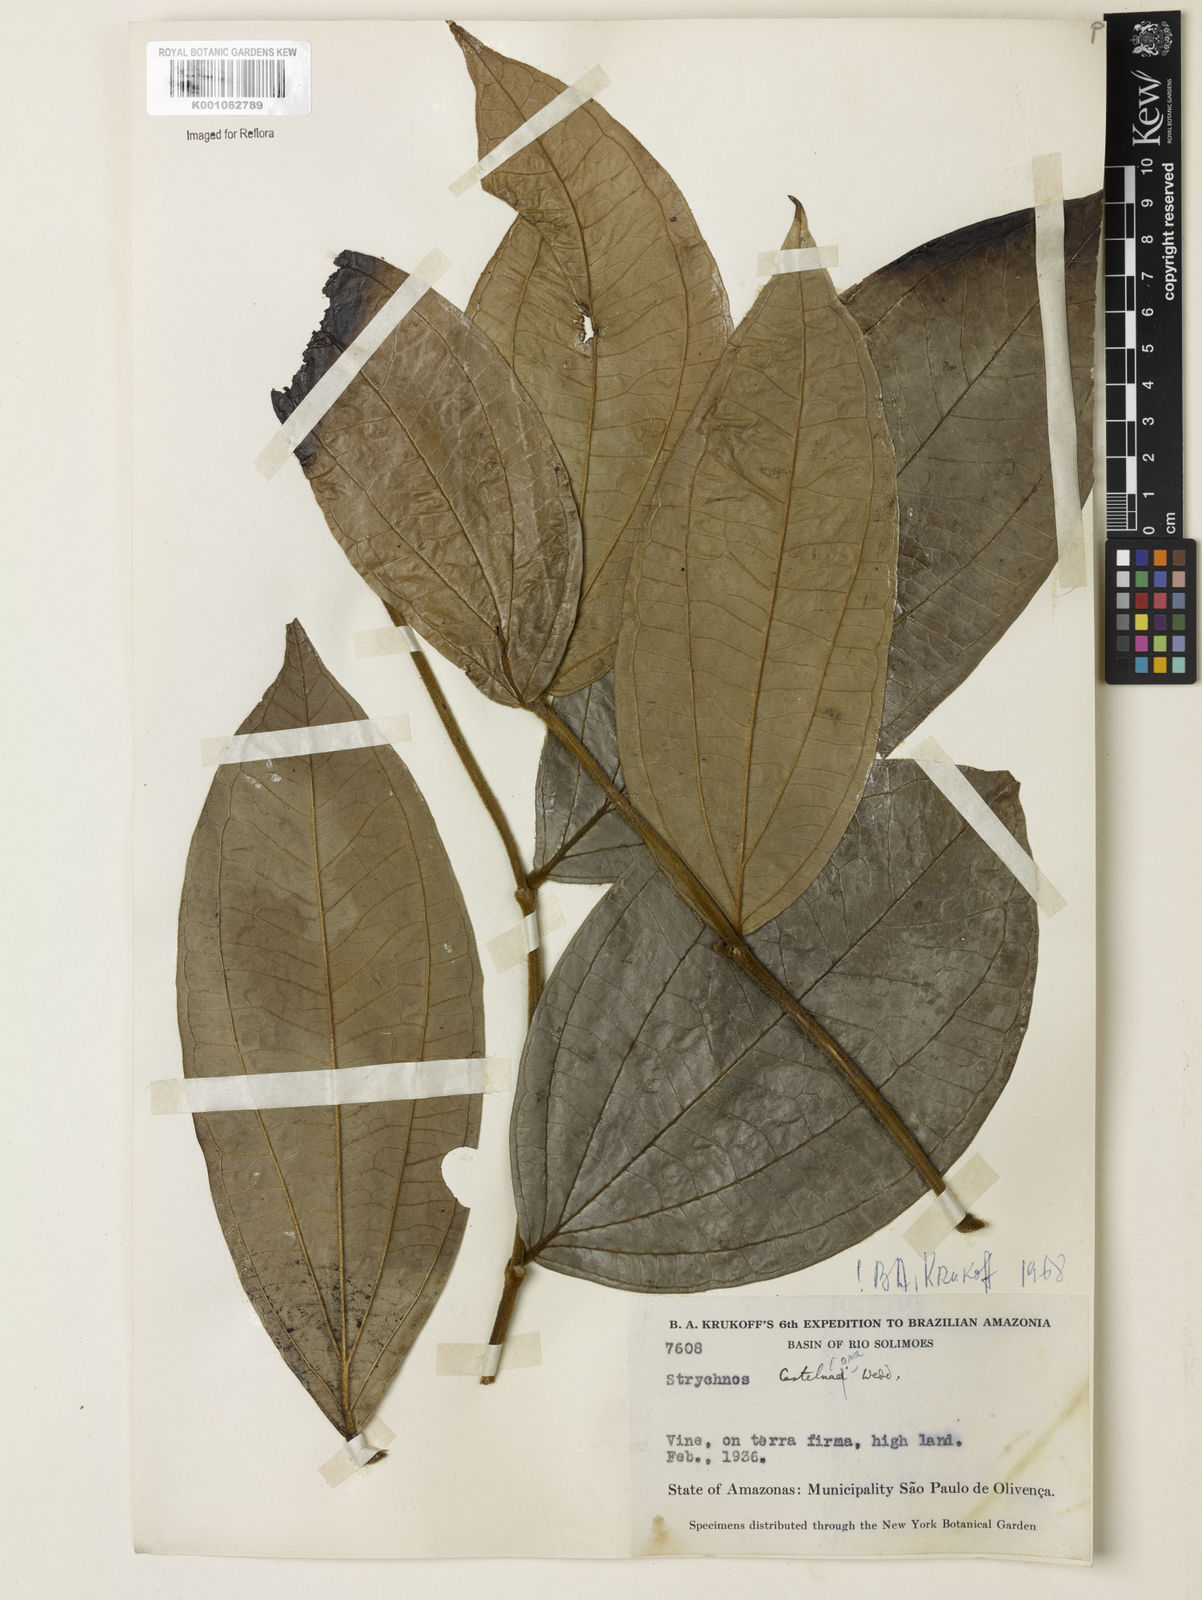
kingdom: Plantae
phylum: Tracheophyta
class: Magnoliopsida
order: Gentianales
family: Loganiaceae
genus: Strychnos
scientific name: Strychnos
